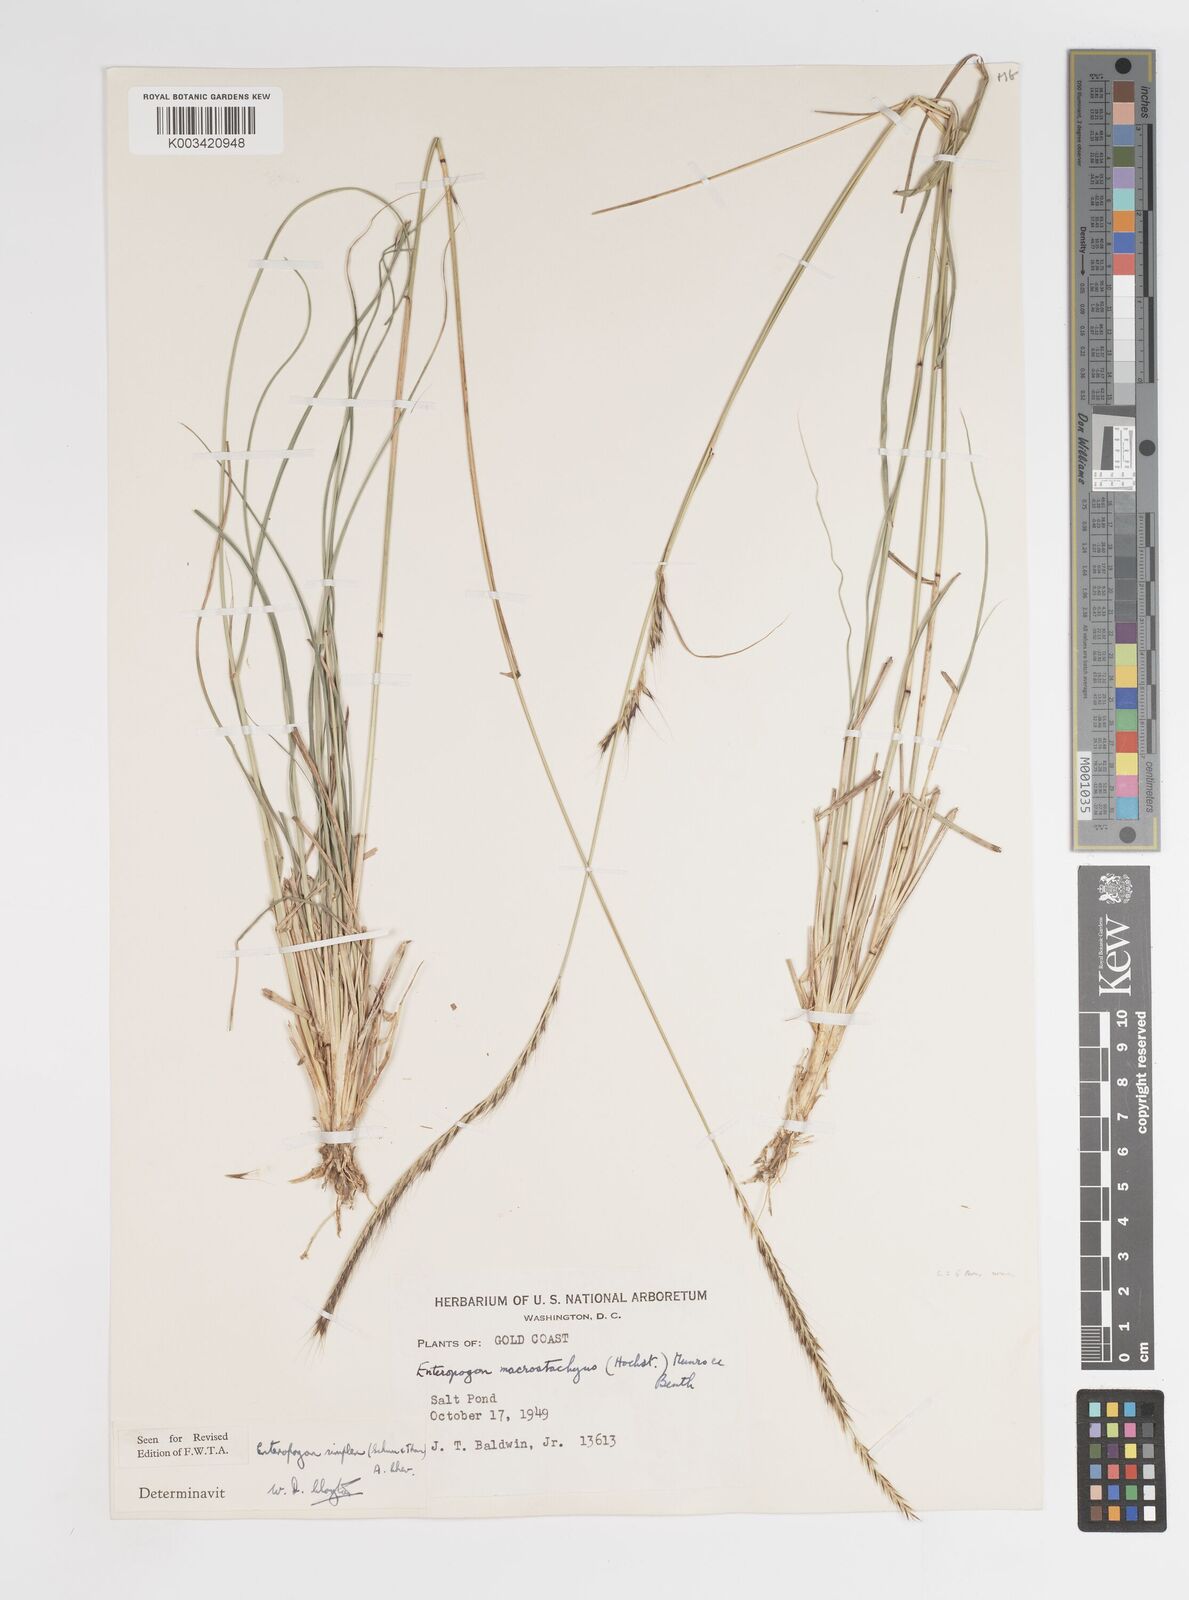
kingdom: Plantae
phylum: Tracheophyta
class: Liliopsida
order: Poales
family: Poaceae
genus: Enteropogon
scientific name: Enteropogon macrostachyus
